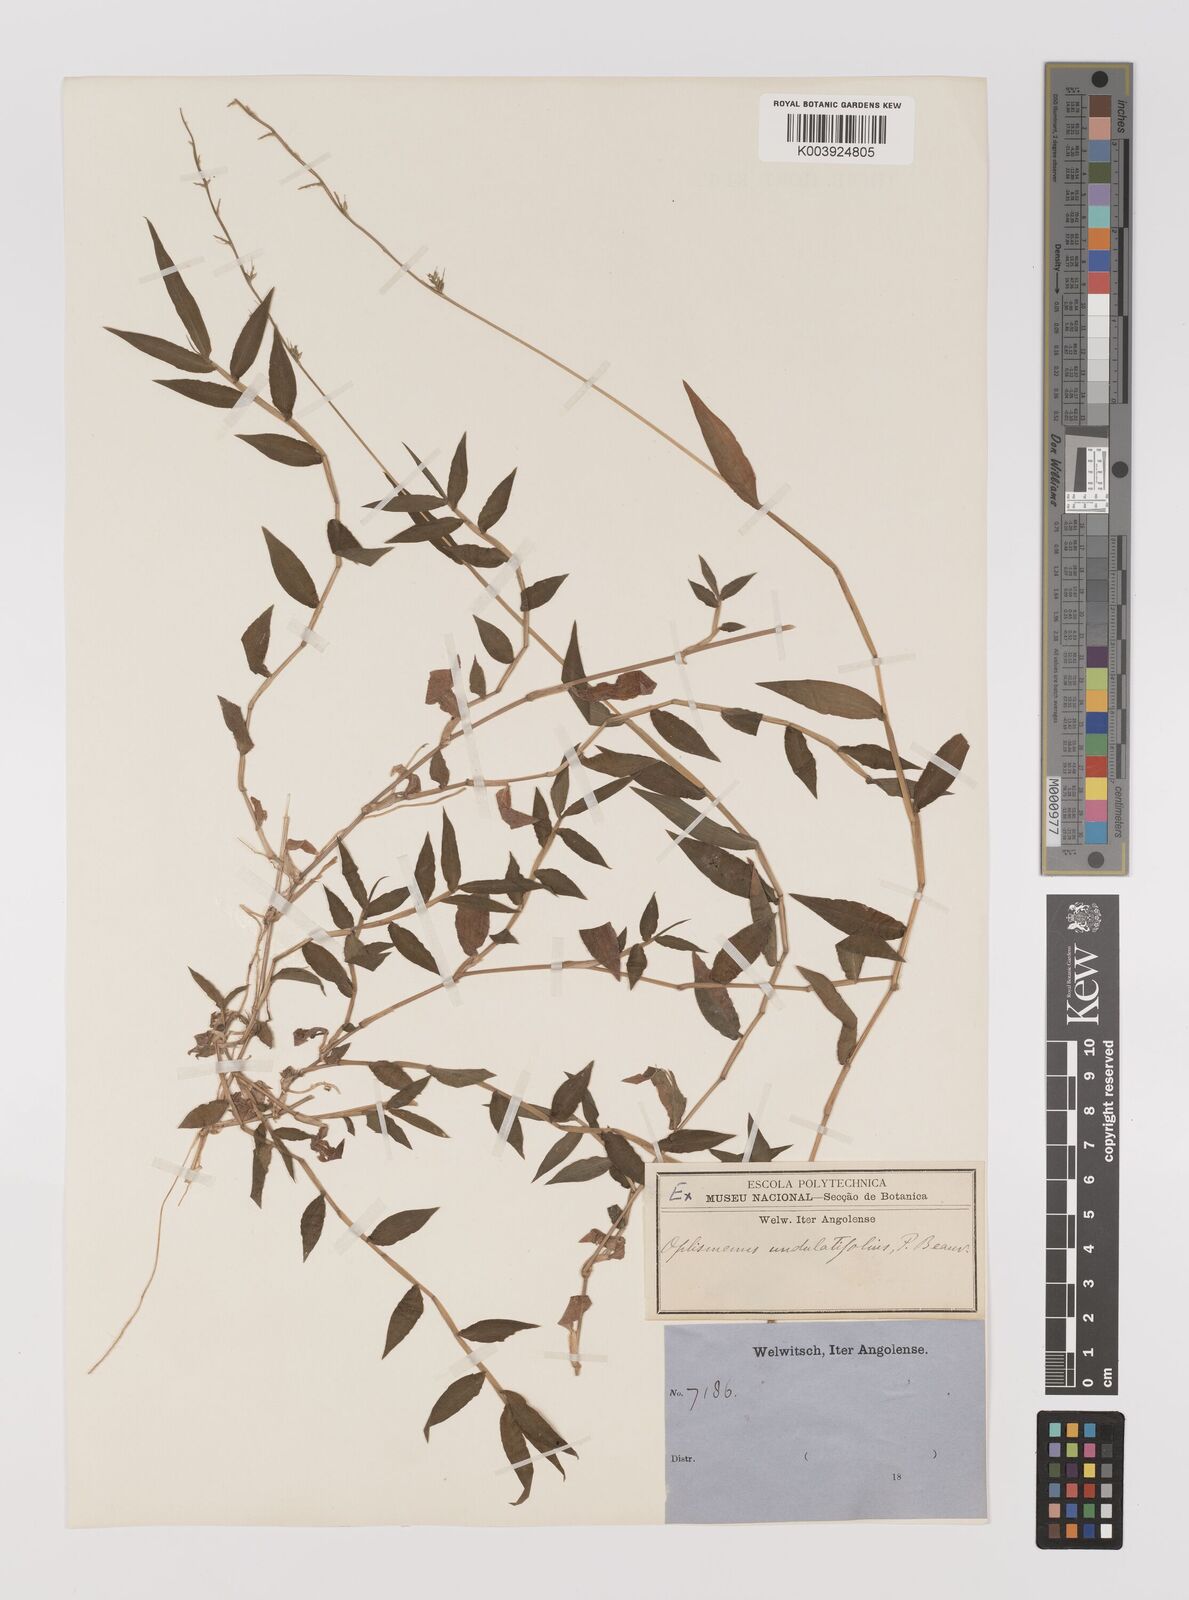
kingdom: Plantae
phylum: Tracheophyta
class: Liliopsida
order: Poales
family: Poaceae
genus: Oplismenus
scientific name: Oplismenus hirtellus
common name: Basketgrass
